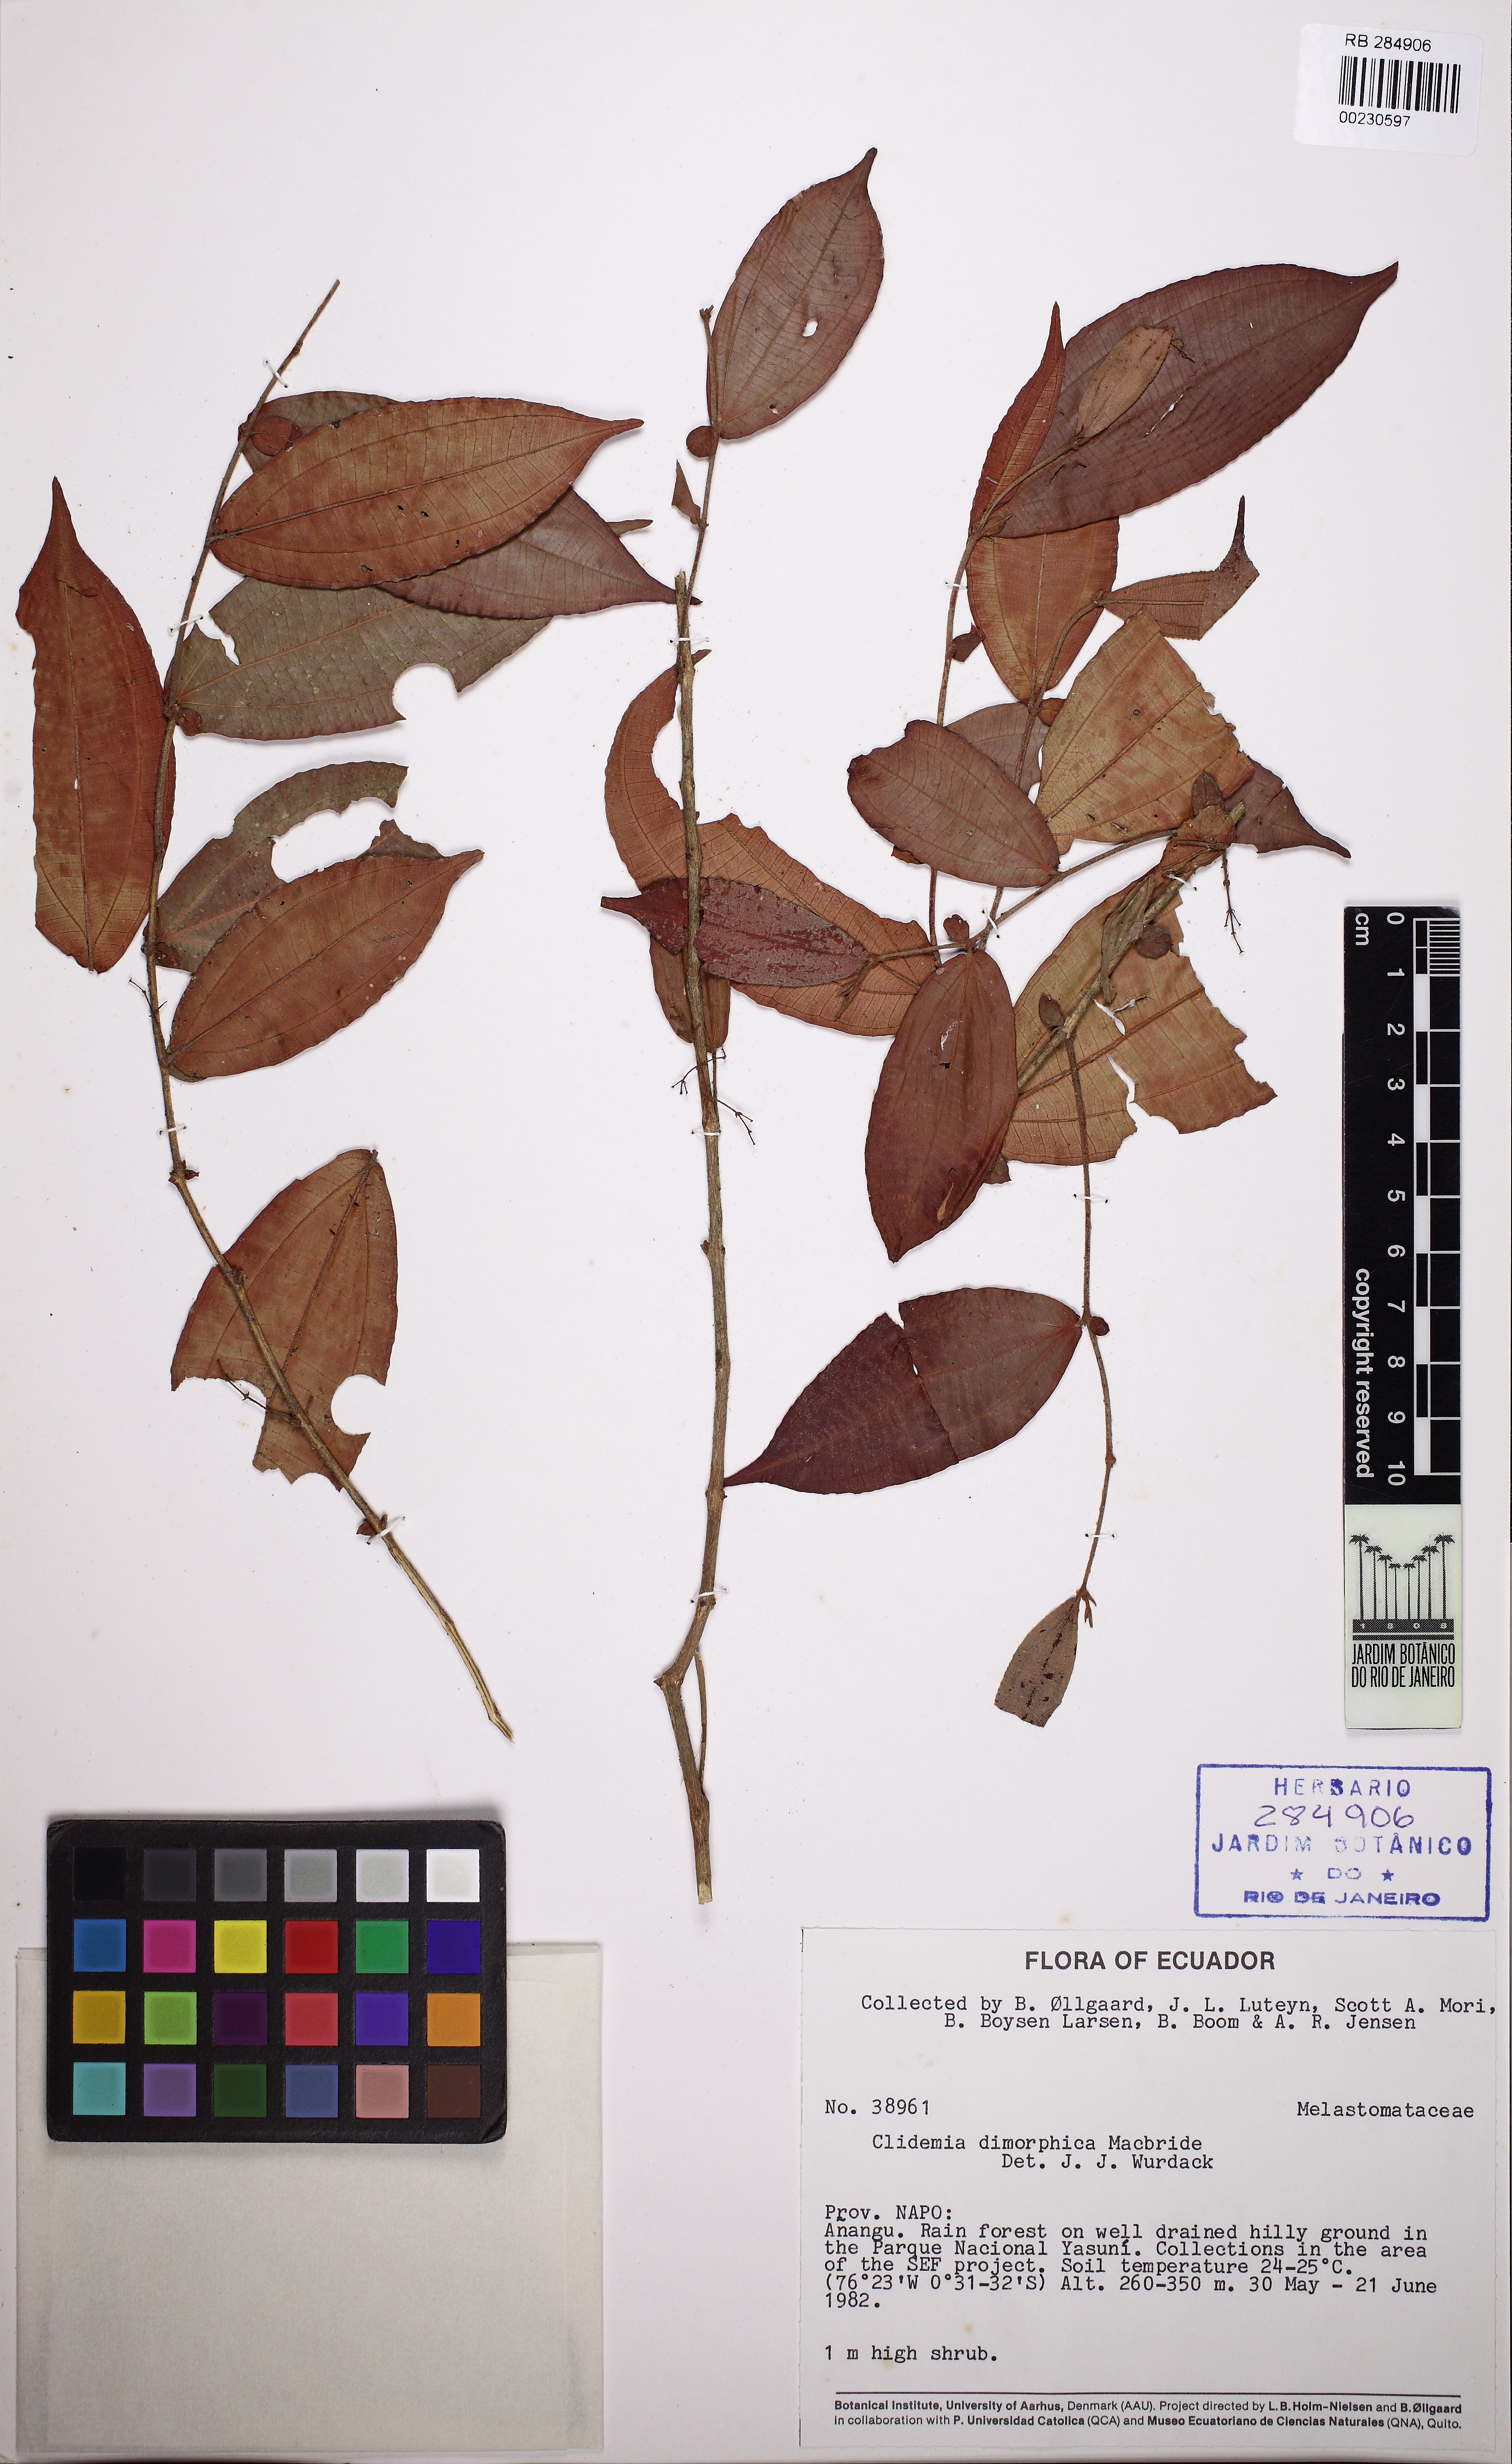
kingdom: Plantae
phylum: Tracheophyta
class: Magnoliopsida
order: Myrtales
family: Melastomataceae
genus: Miconia
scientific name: Miconia dimorphica
